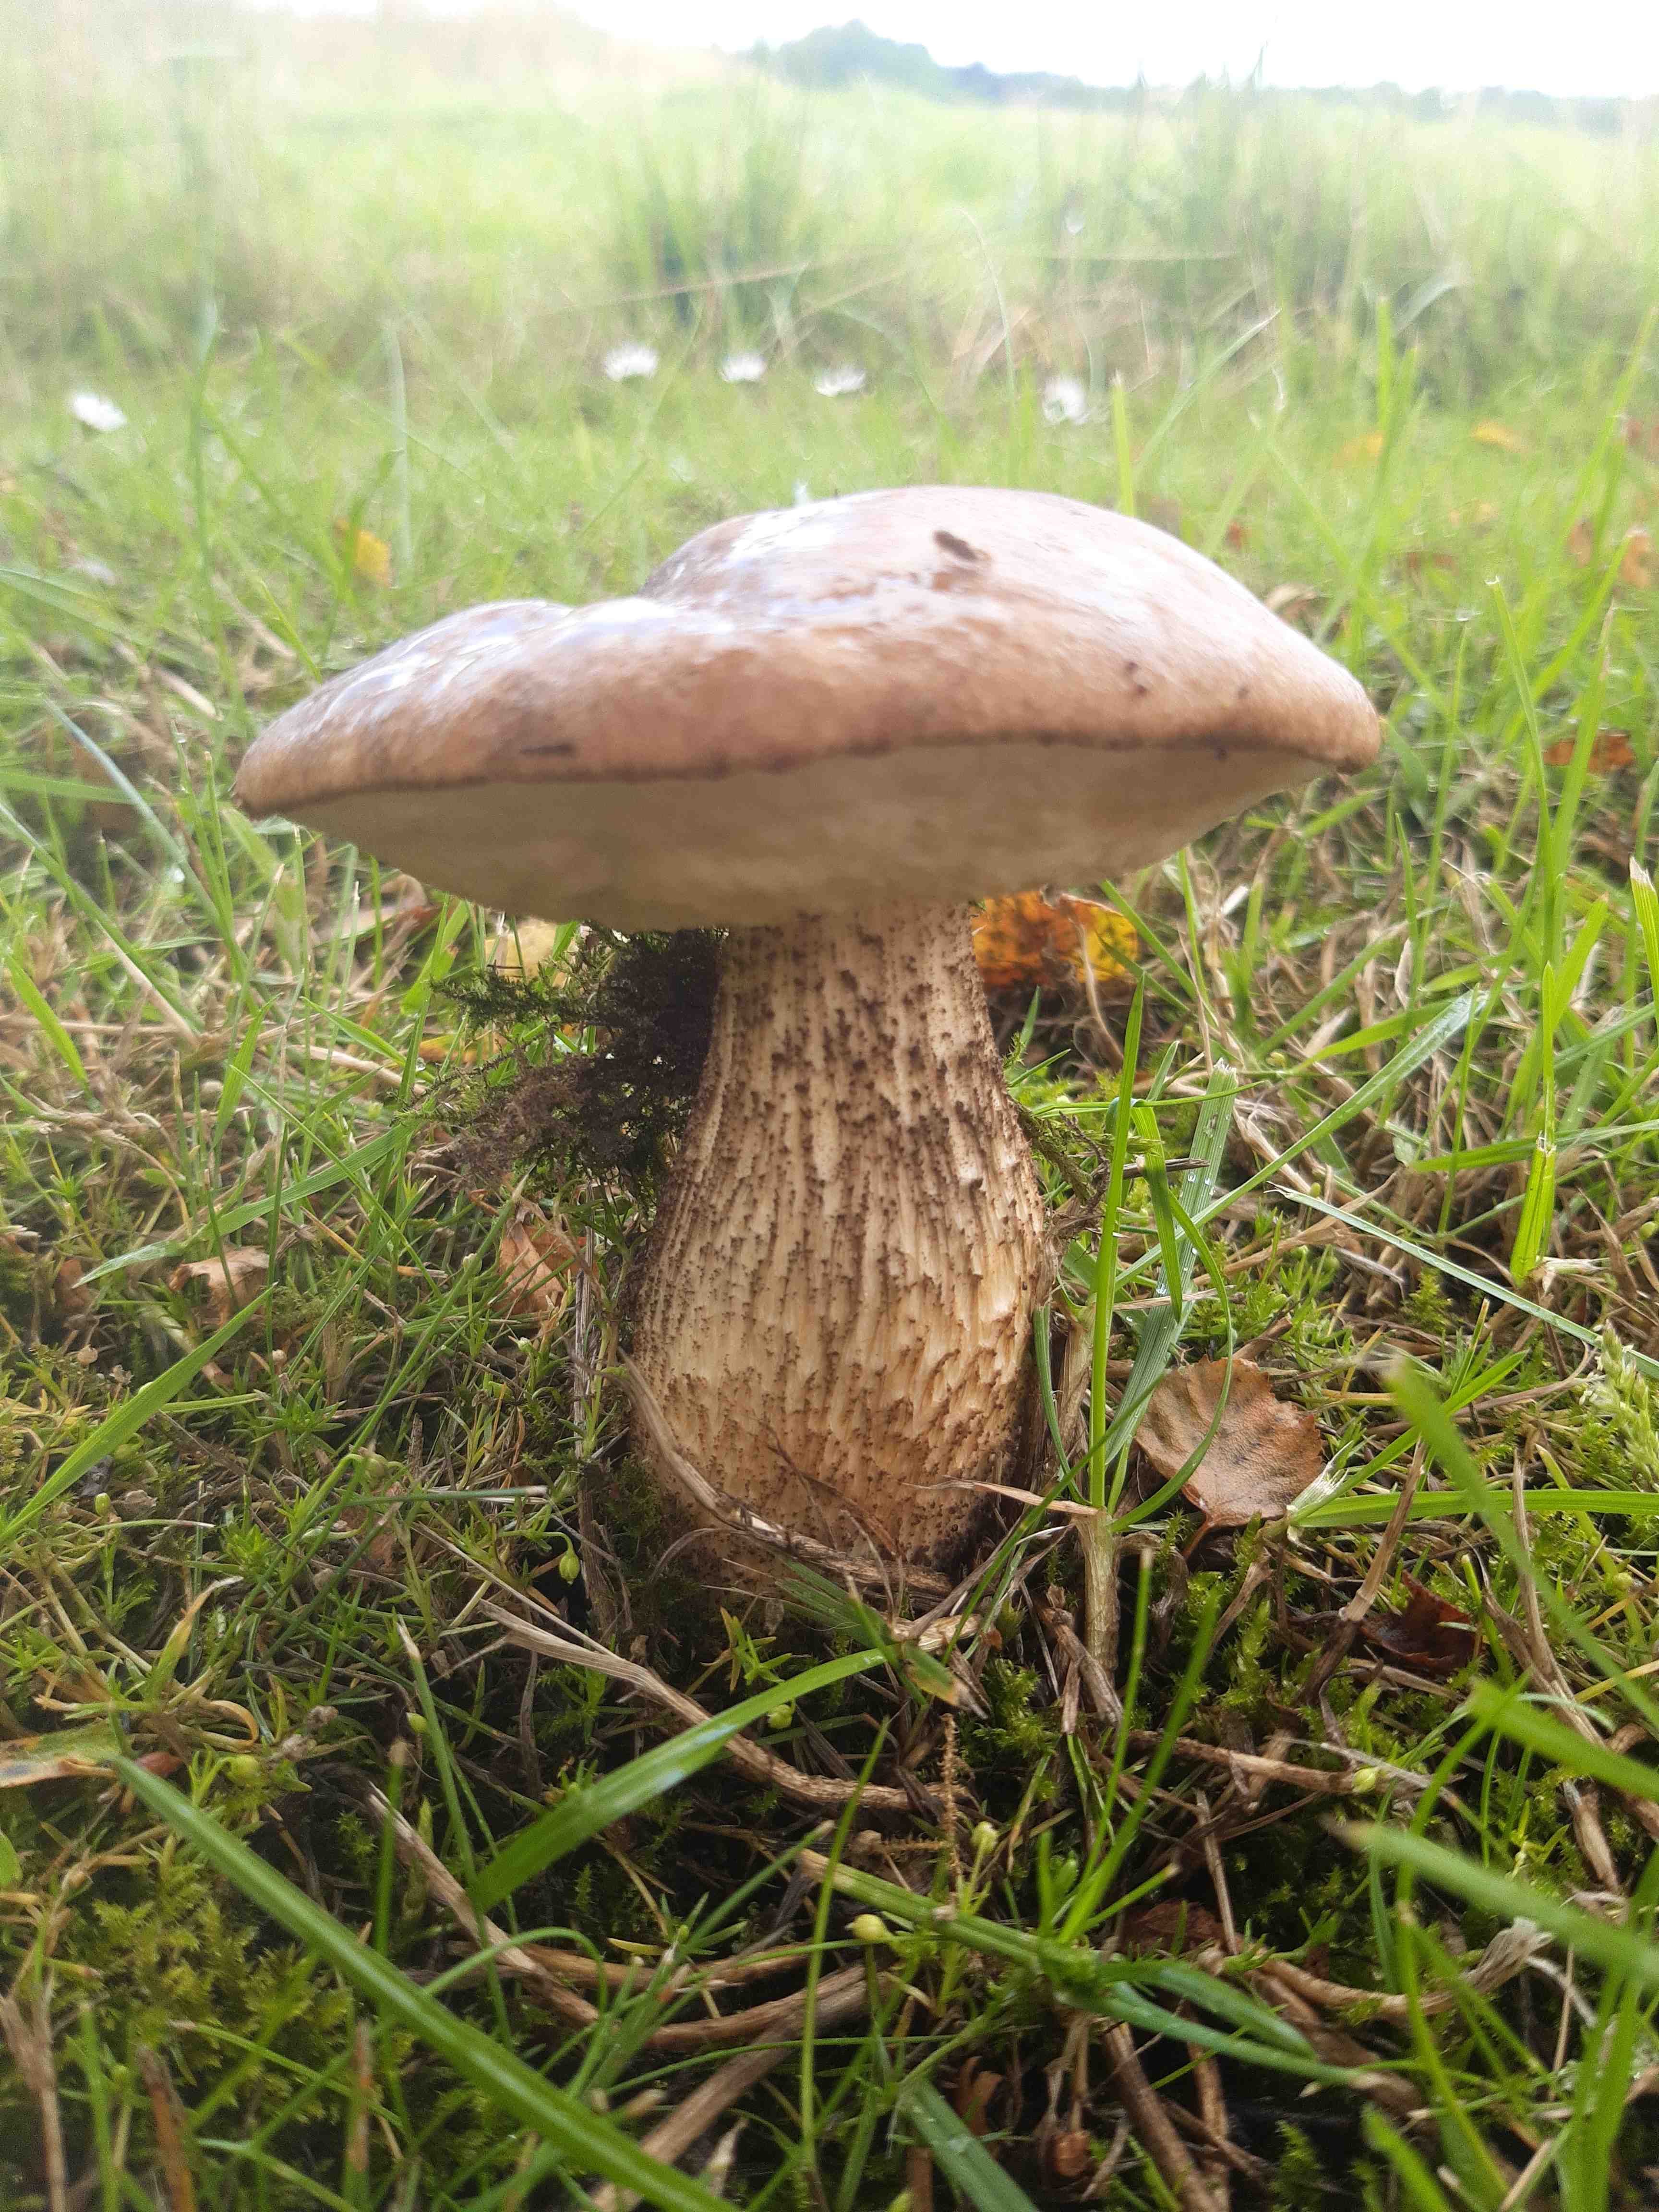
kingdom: Fungi
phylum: Basidiomycota
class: Agaricomycetes
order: Boletales
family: Boletaceae
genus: Leccinum
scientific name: Leccinum scabrum
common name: brun skælrørhat
